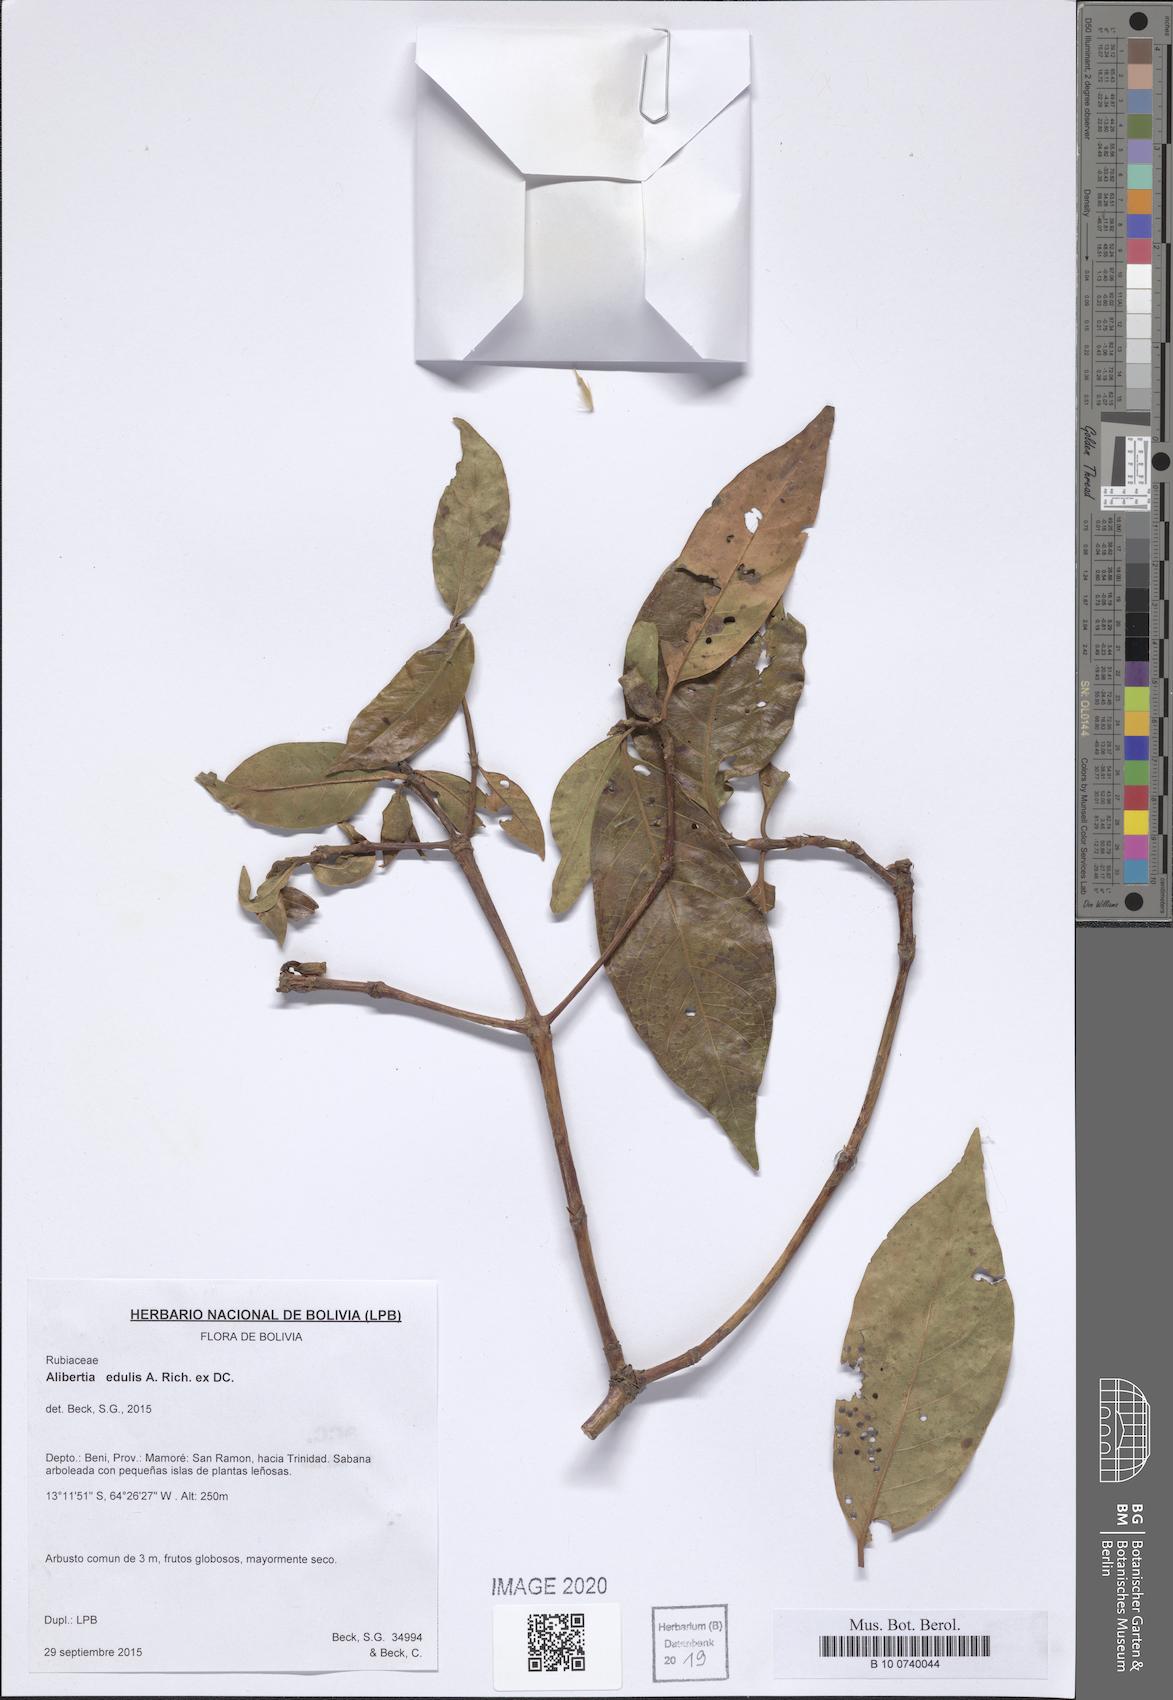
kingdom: Plantae
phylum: Tracheophyta
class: Magnoliopsida
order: Gentianales
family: Rubiaceae
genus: Alibertia
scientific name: Alibertia edulis
